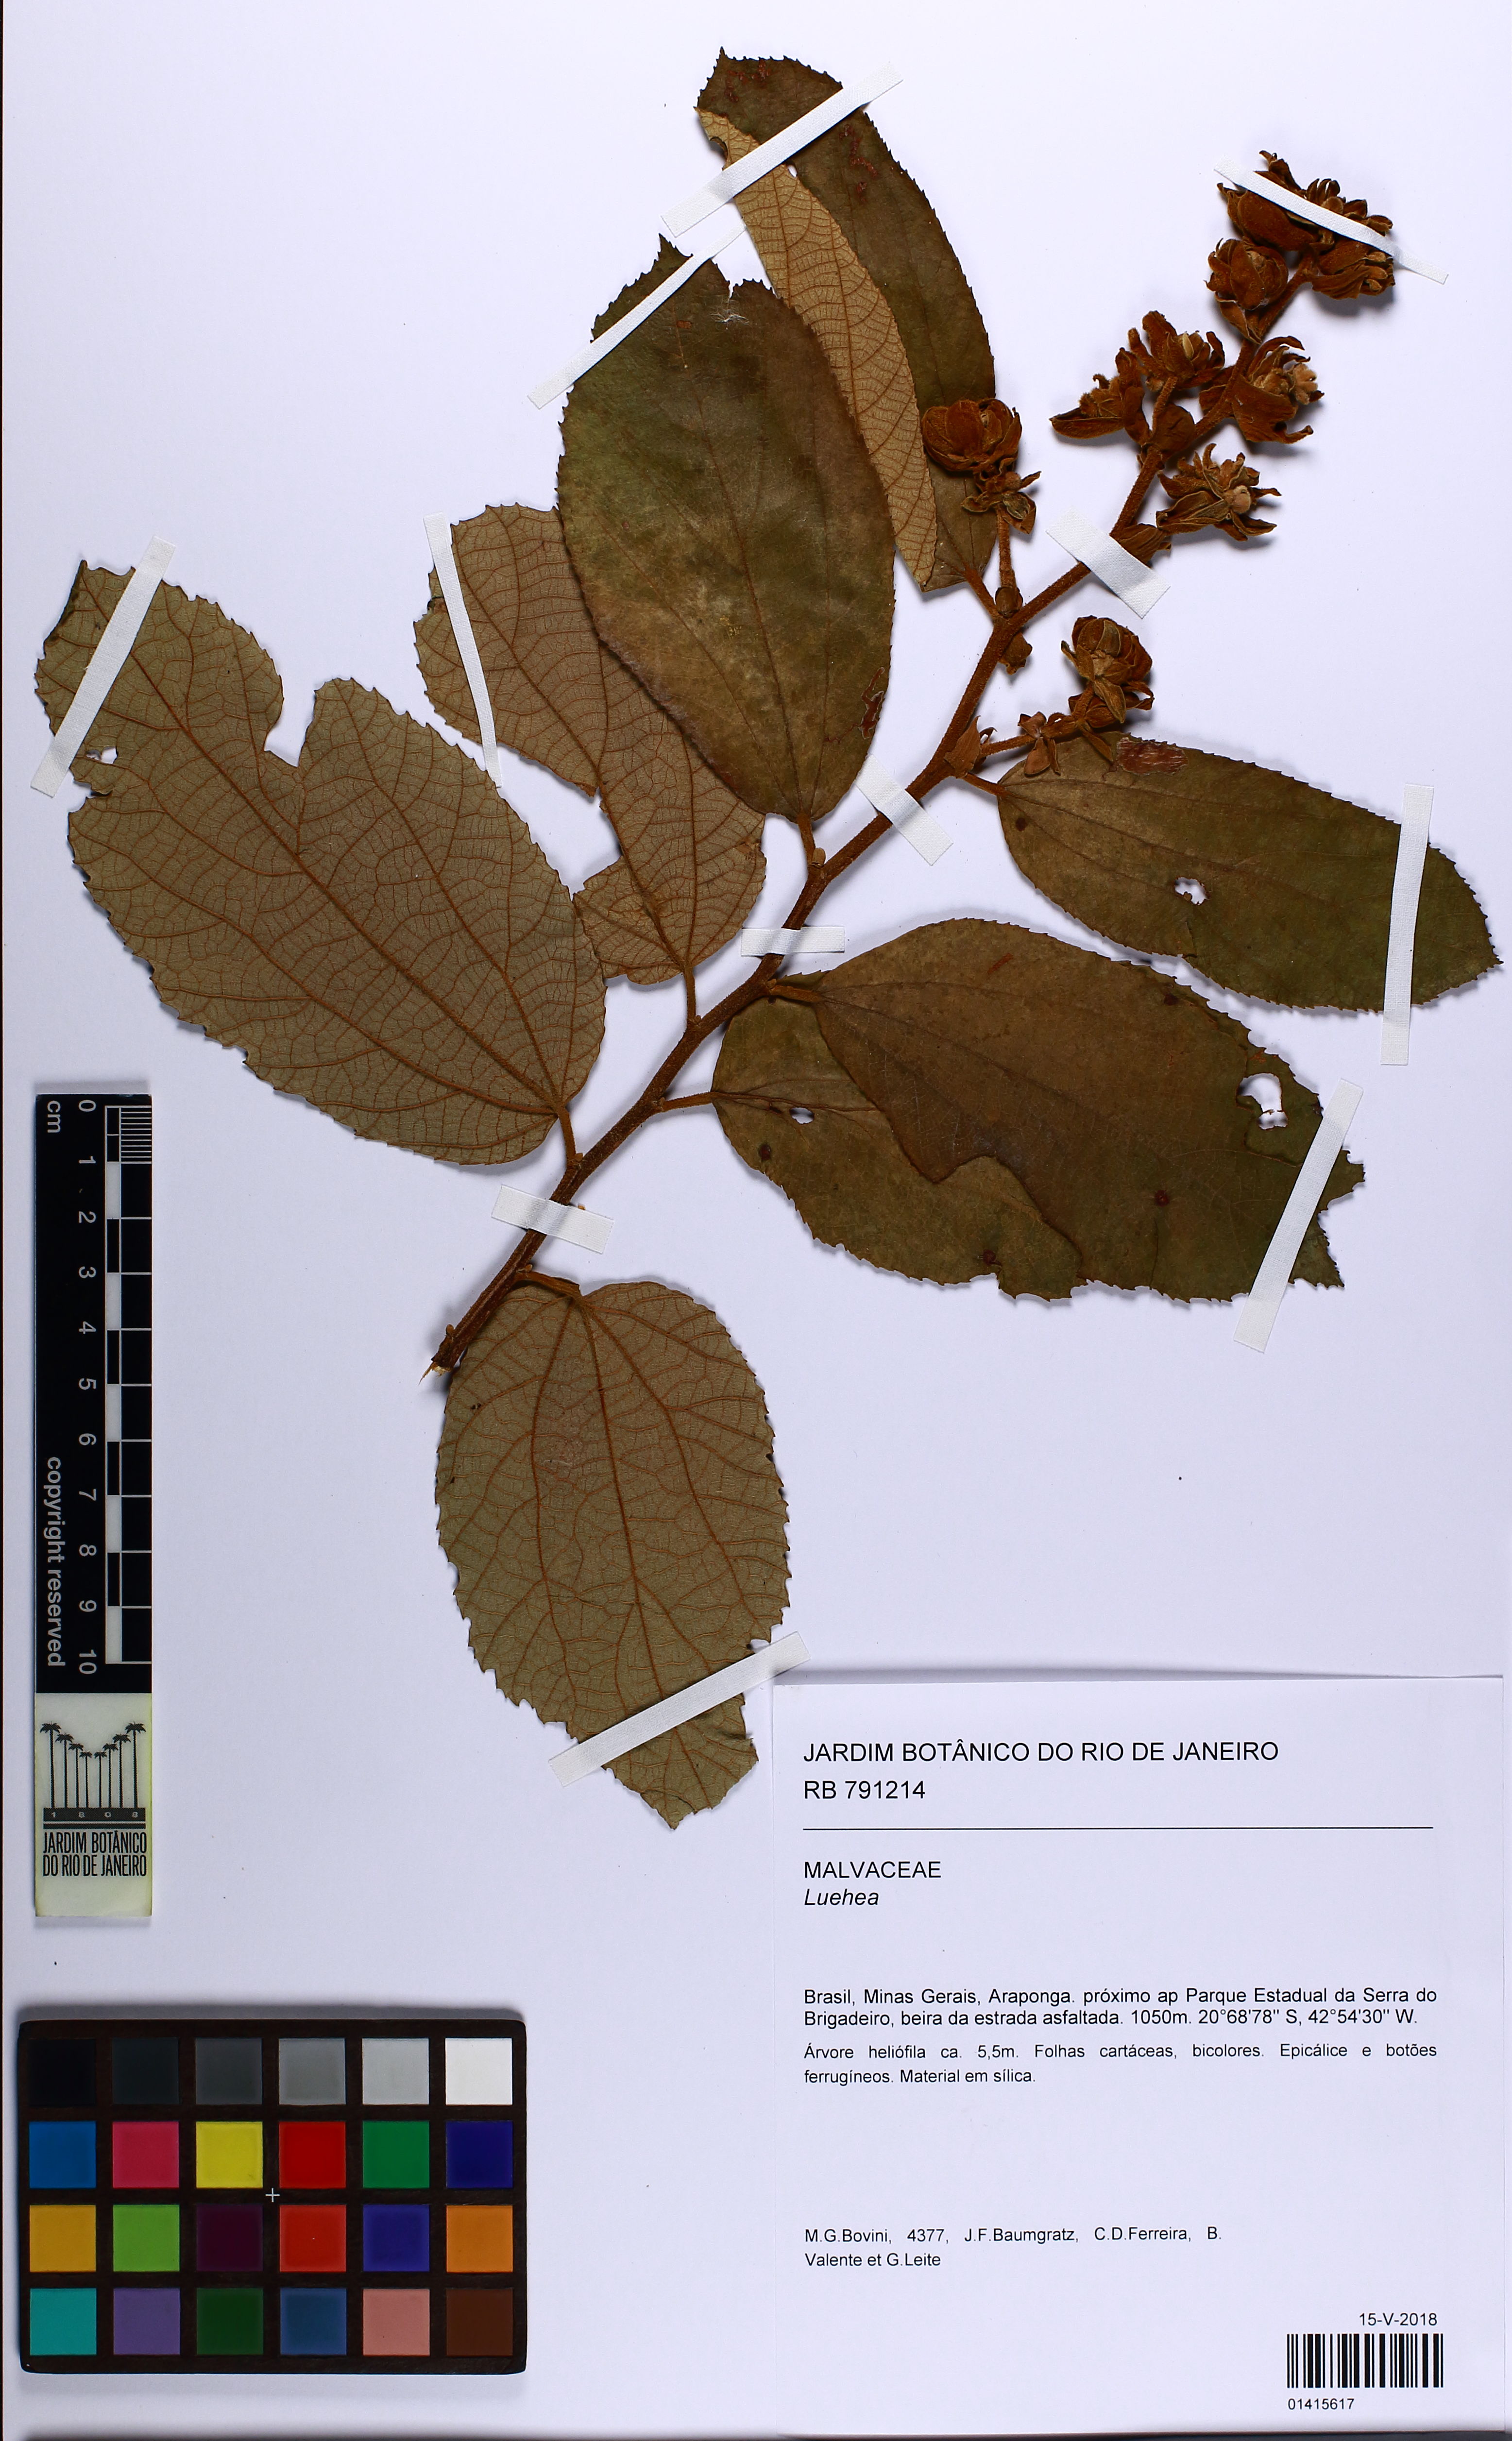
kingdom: Plantae
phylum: Tracheophyta
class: Magnoliopsida
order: Malvales
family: Malvaceae
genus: Luehea
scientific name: Luehea
